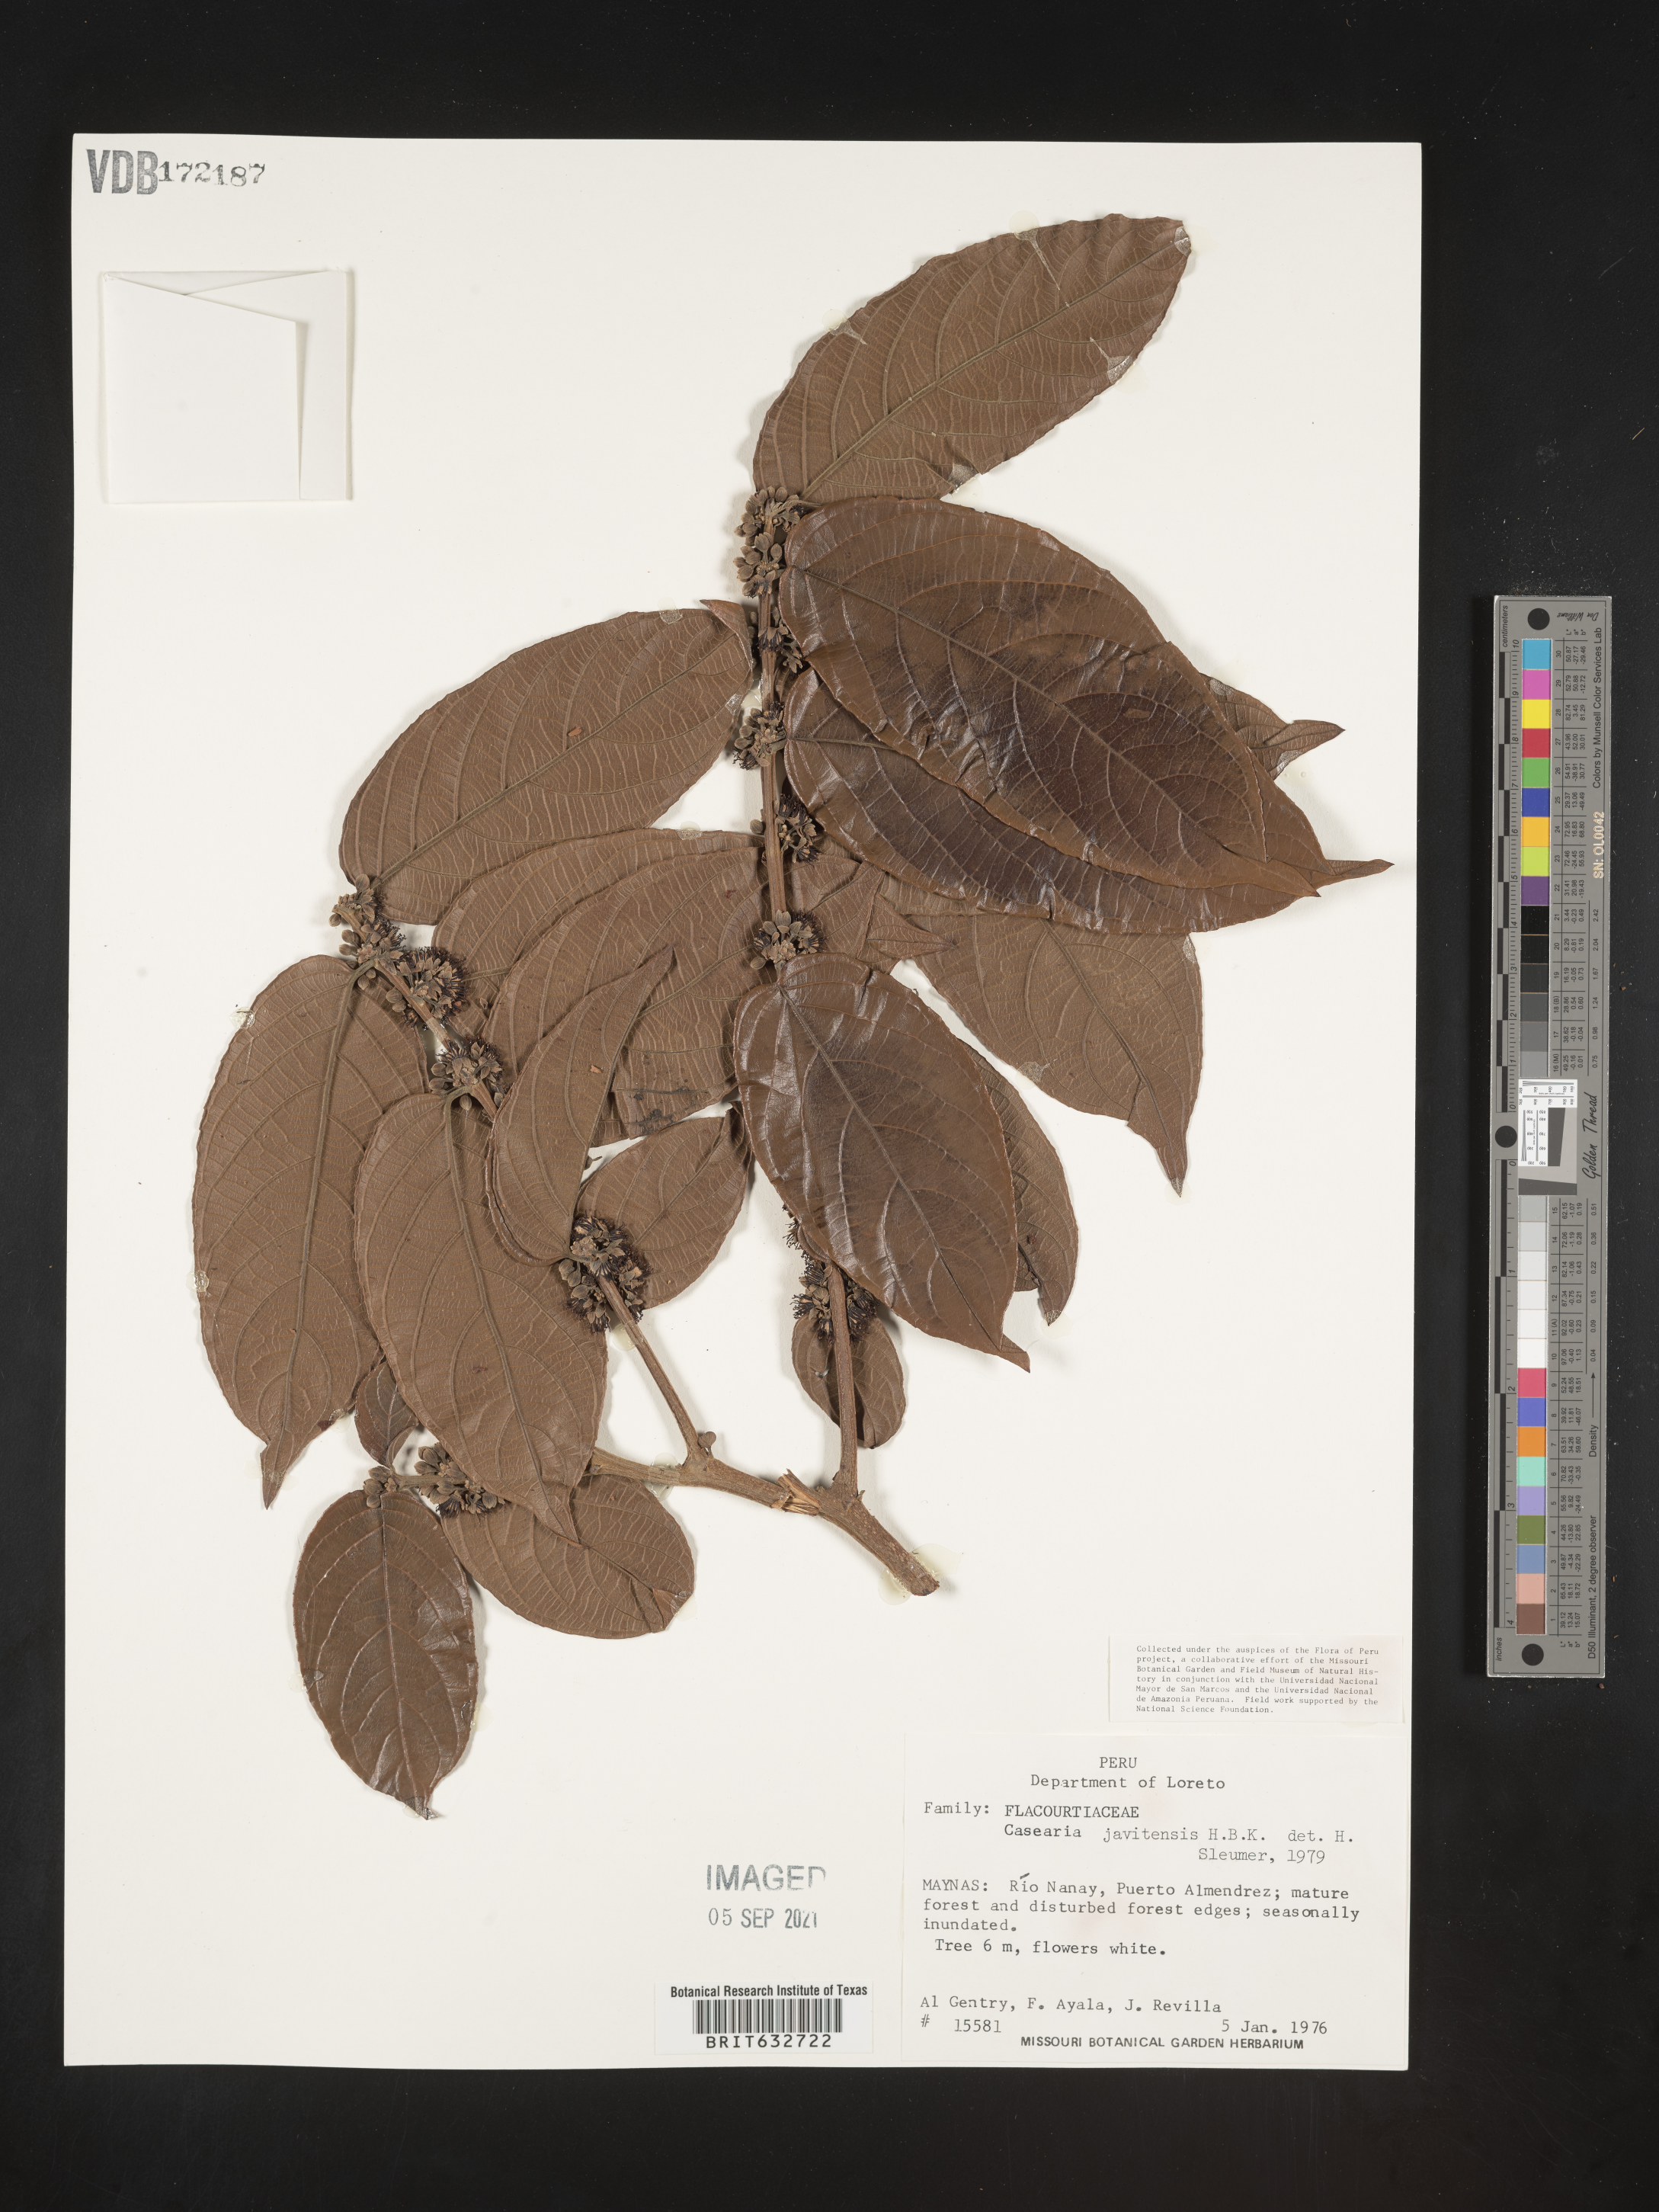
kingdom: Plantae
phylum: Tracheophyta
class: Magnoliopsida
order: Malpighiales
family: Salicaceae
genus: Casearia
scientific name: Casearia
